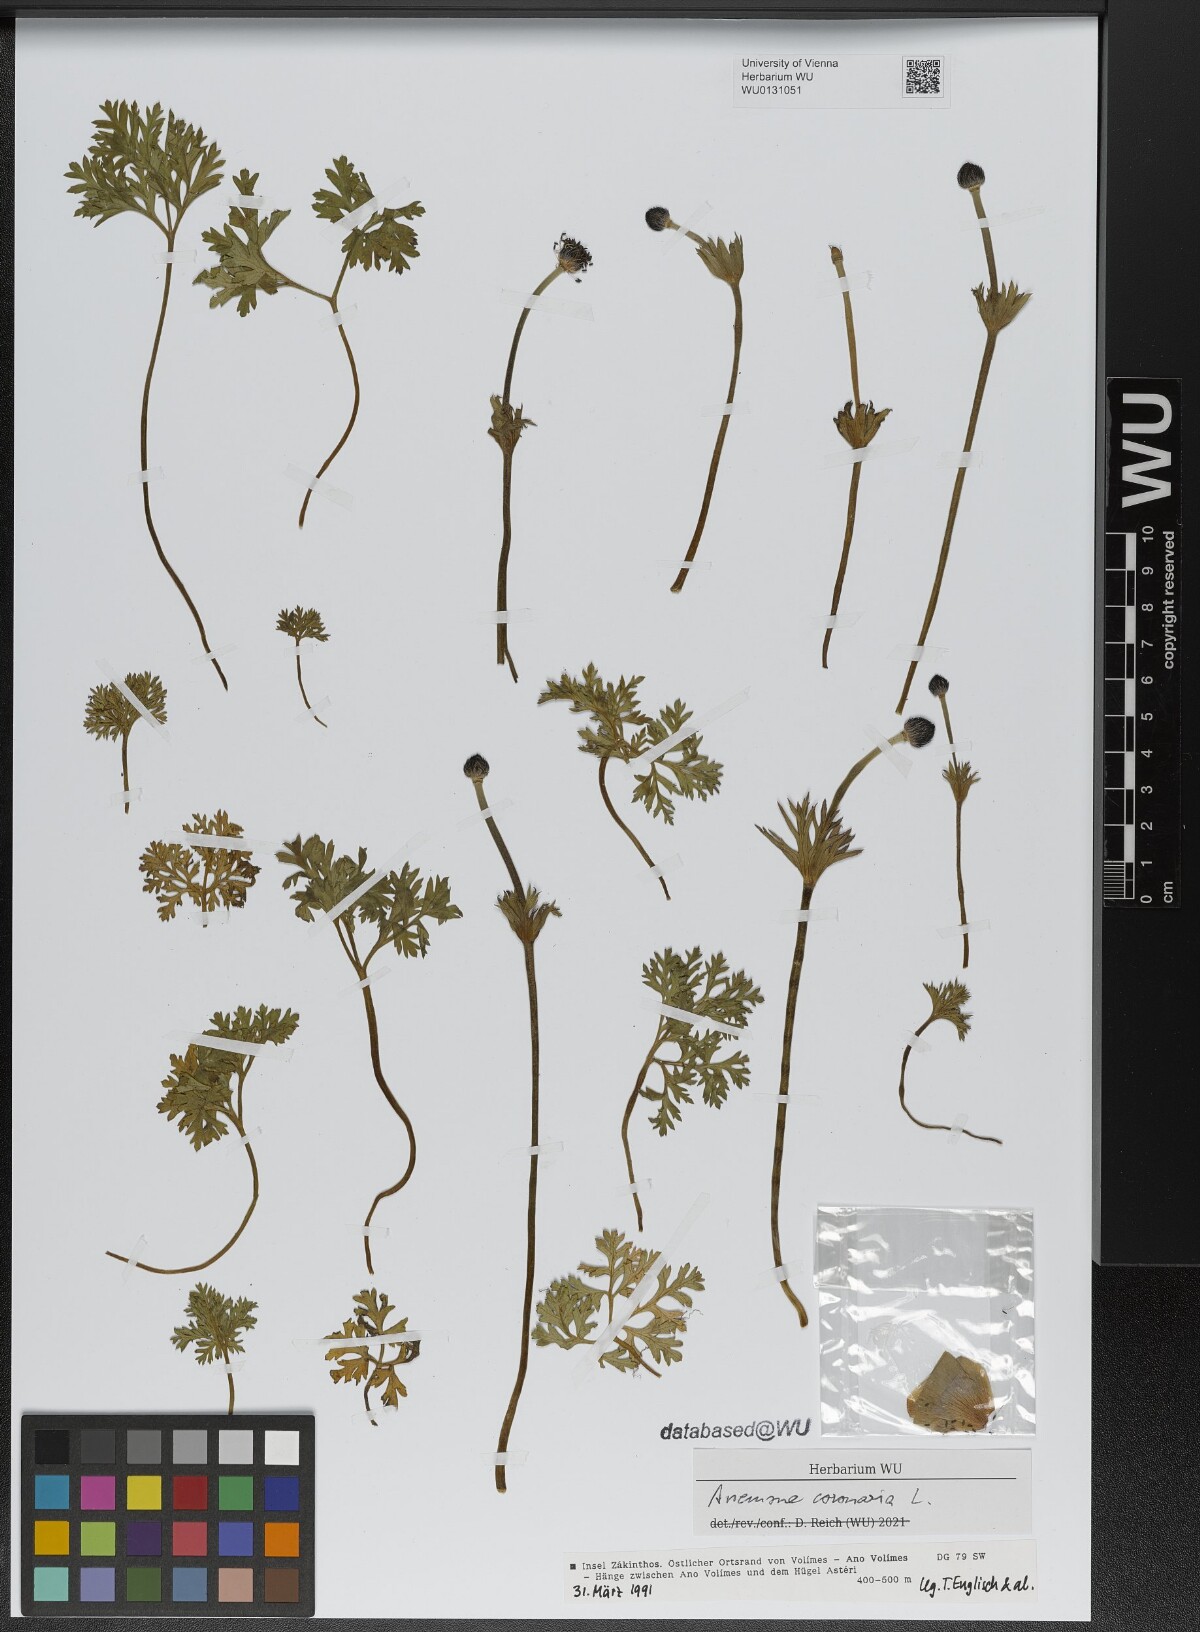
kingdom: Plantae
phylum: Tracheophyta
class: Magnoliopsida
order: Ranunculales
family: Ranunculaceae
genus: Anemone
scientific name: Anemone coronaria
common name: Poppy anemone
